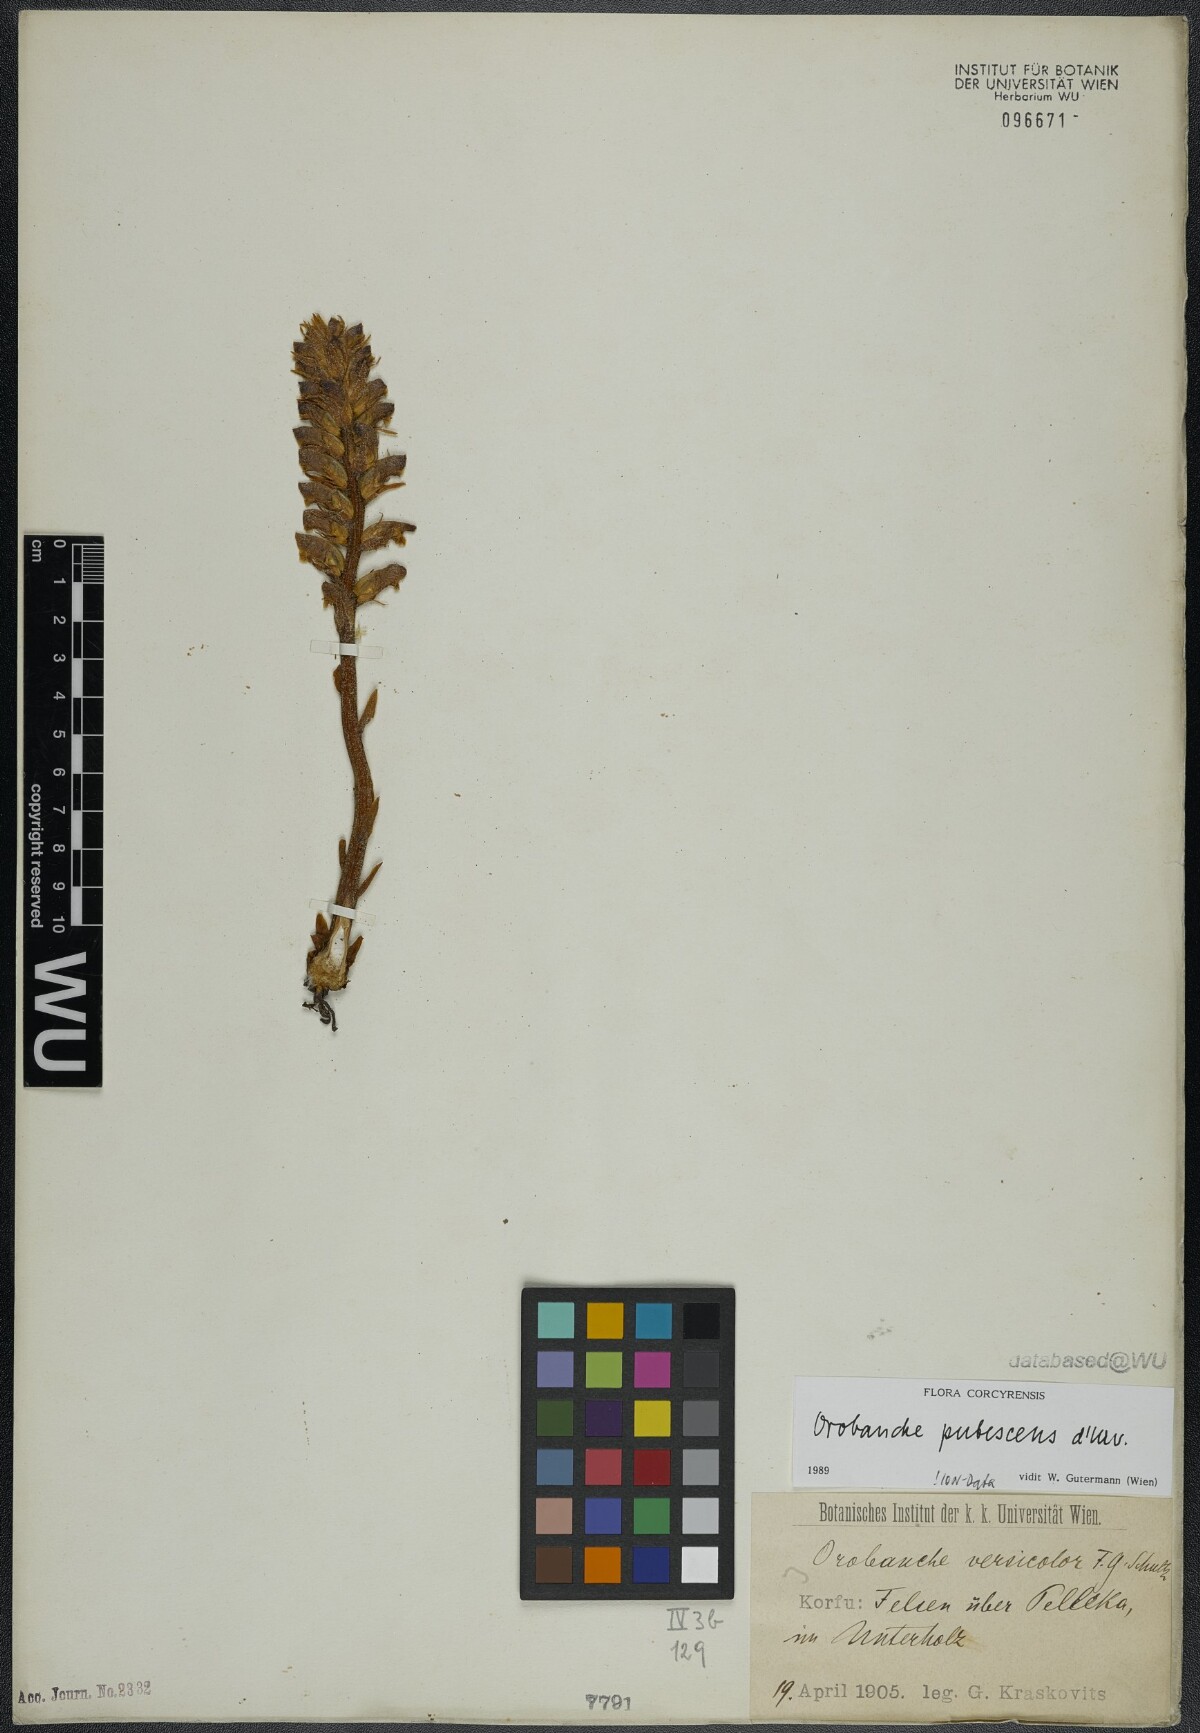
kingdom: Plantae
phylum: Tracheophyta
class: Magnoliopsida
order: Lamiales
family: Orobanchaceae
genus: Orobanche
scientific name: Orobanche pubescens
